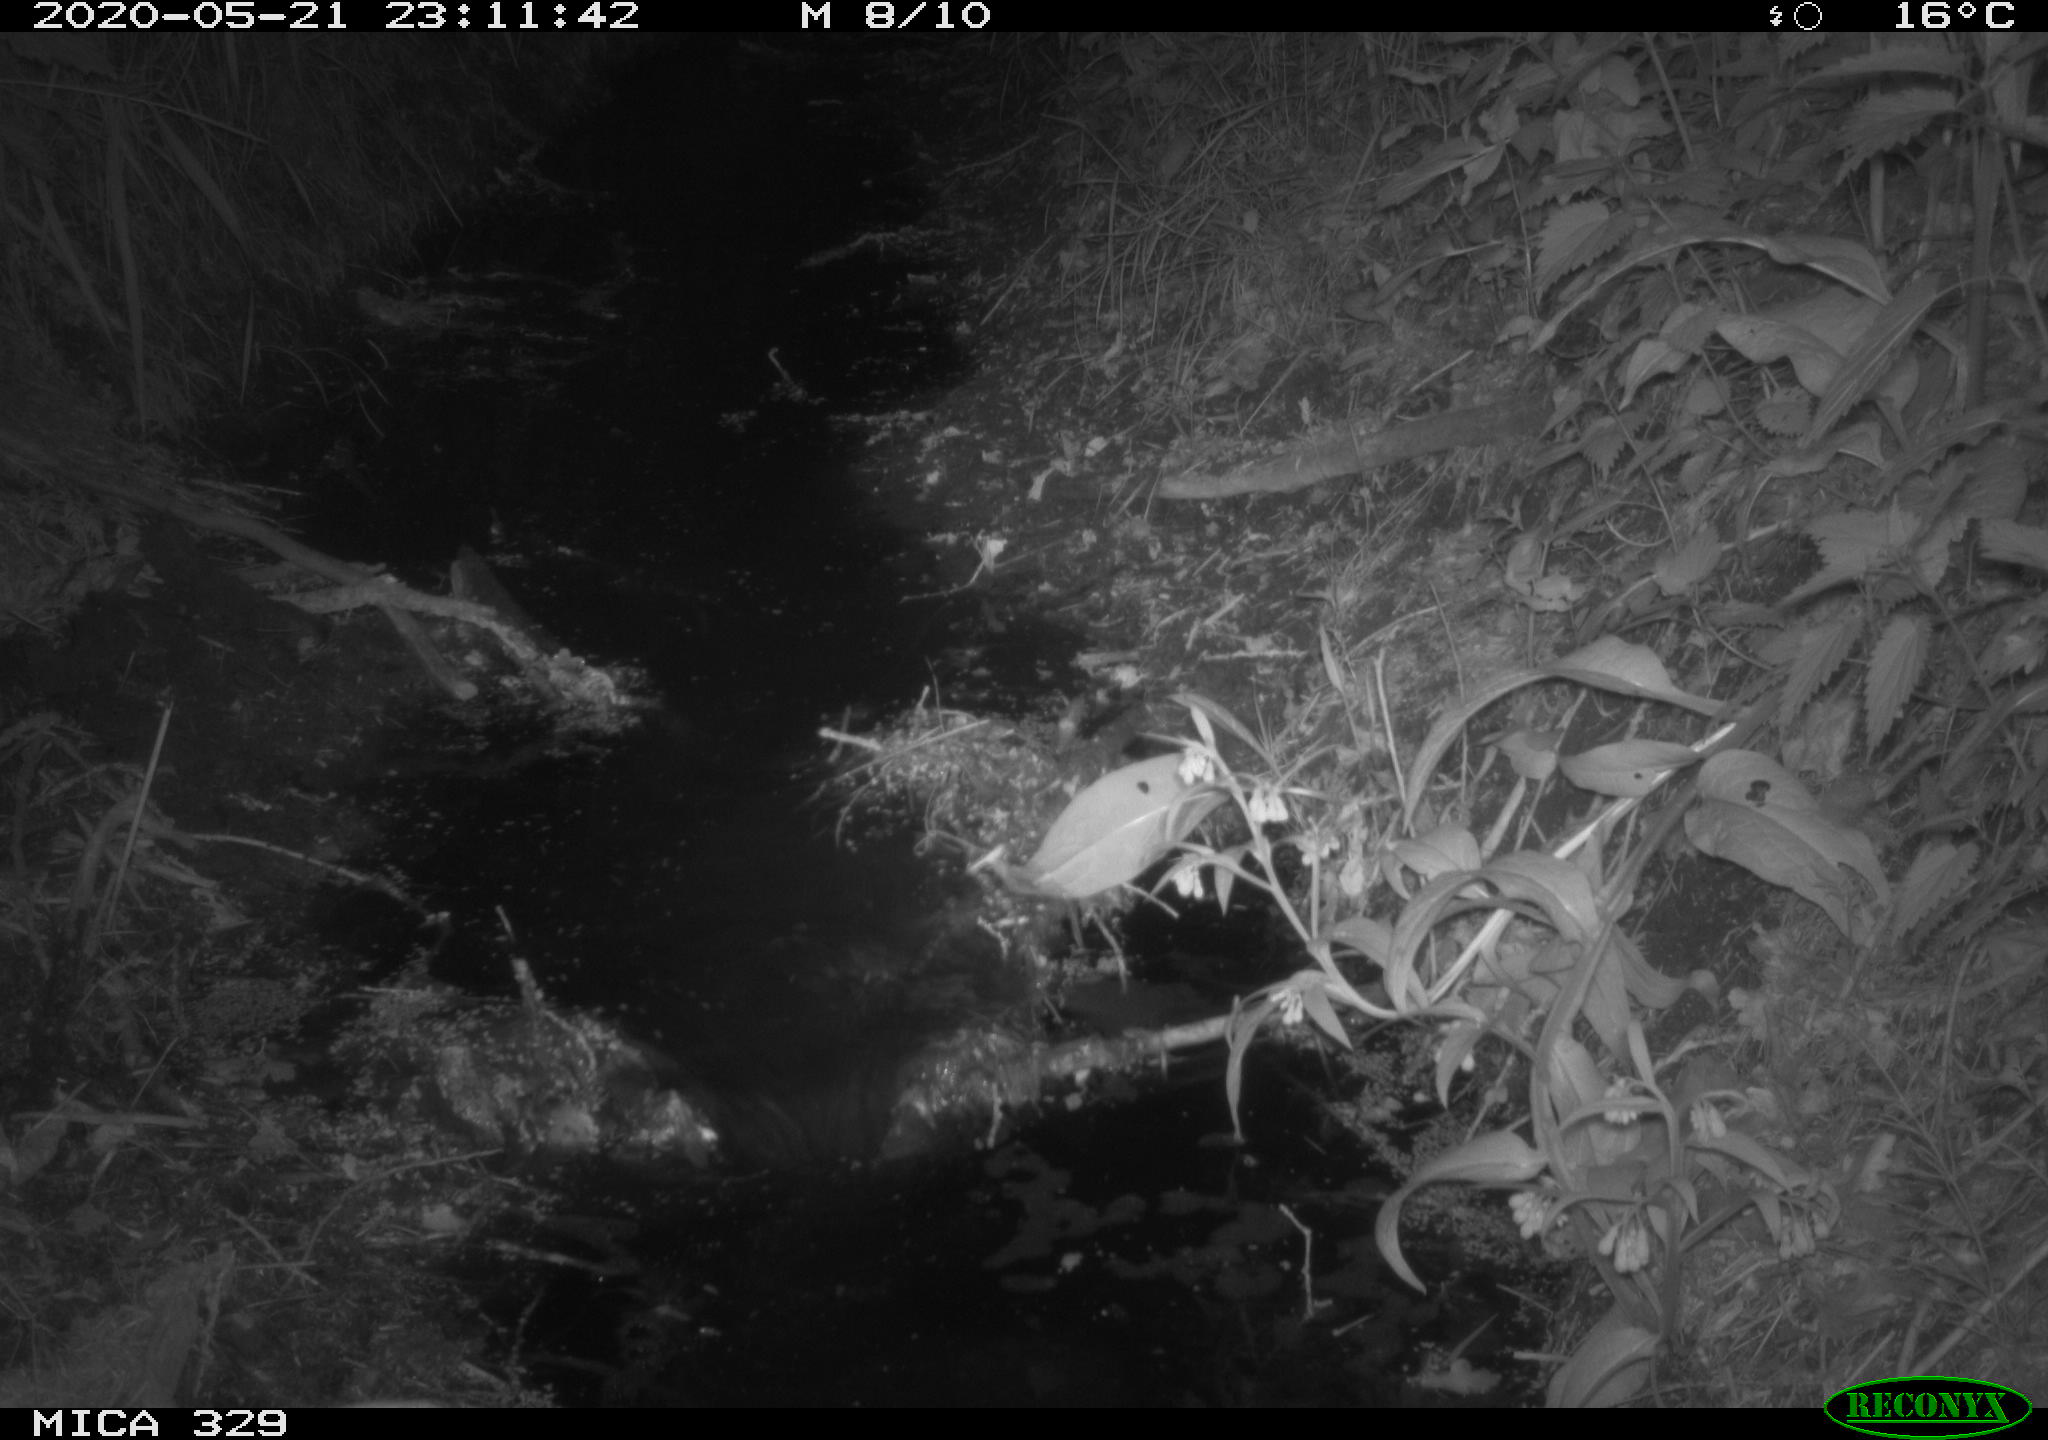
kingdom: Animalia
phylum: Chordata
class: Mammalia
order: Rodentia
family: Myocastoridae
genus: Myocastor
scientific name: Myocastor coypus
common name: Coypu
